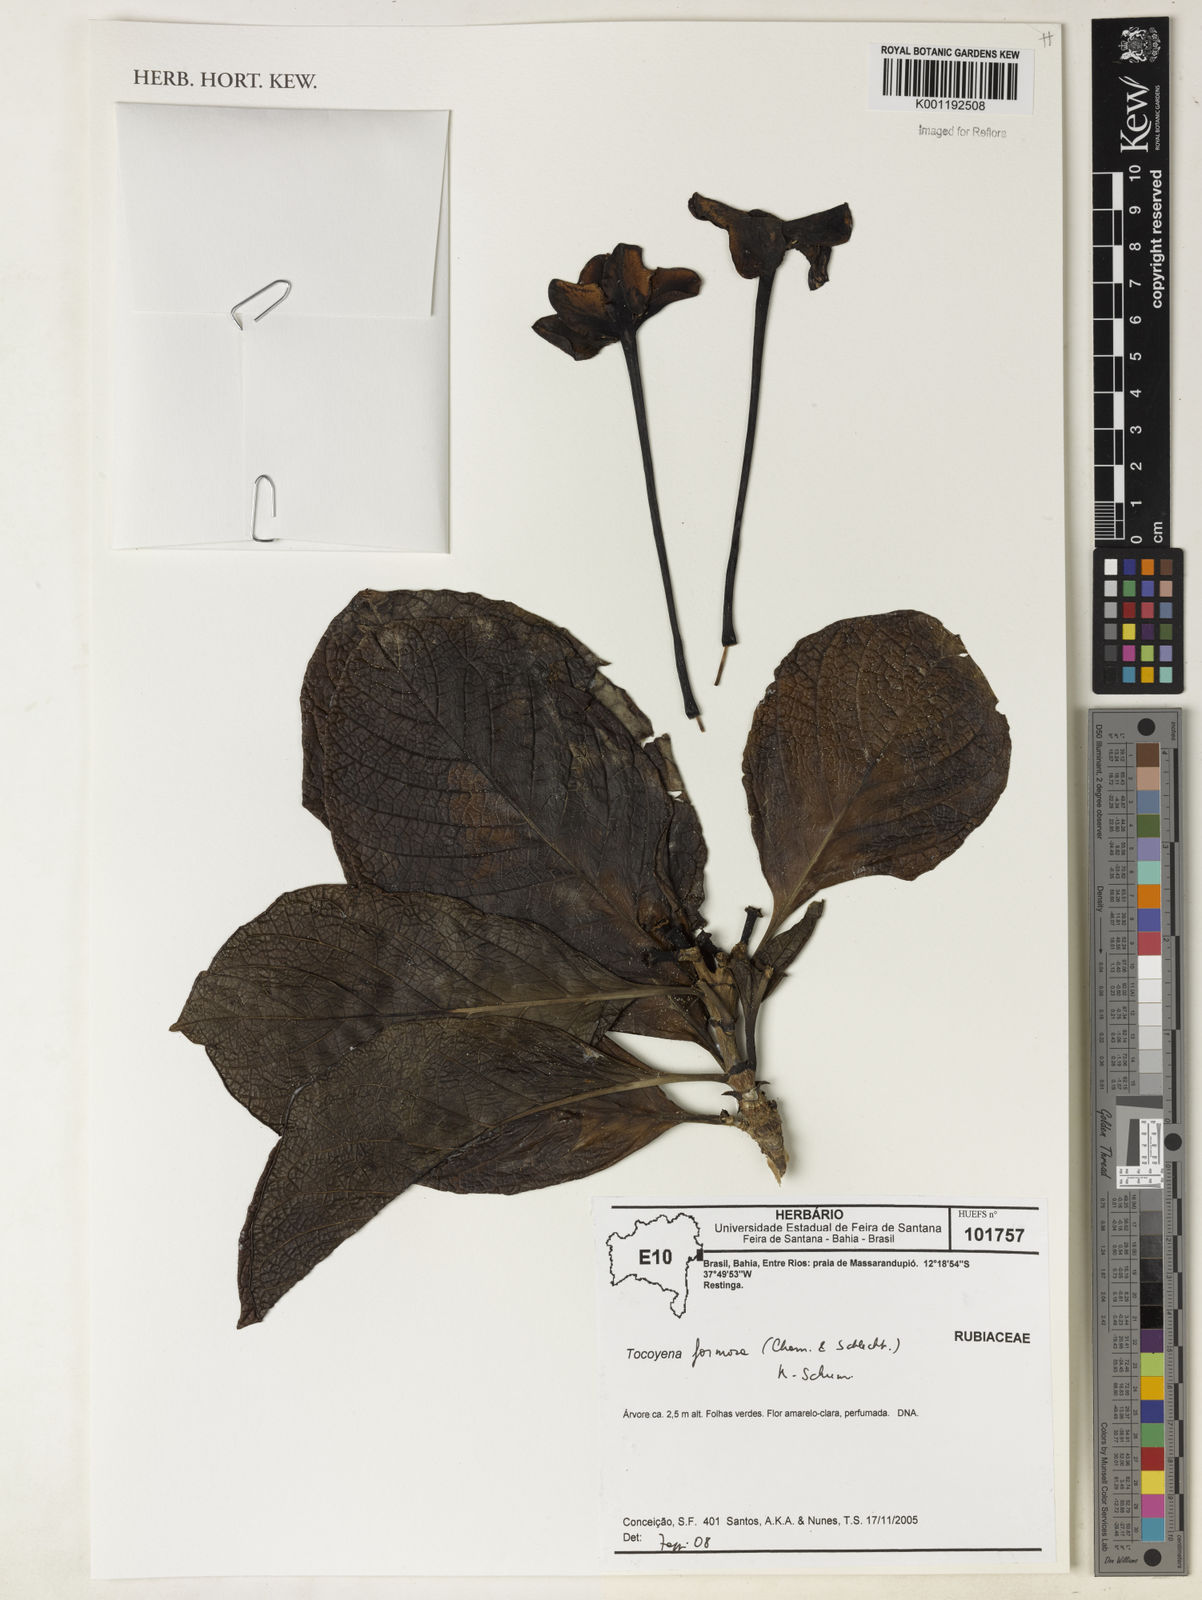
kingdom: Plantae
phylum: Tracheophyta
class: Magnoliopsida
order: Gentianales
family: Rubiaceae
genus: Tocoyena
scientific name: Tocoyena formosa
